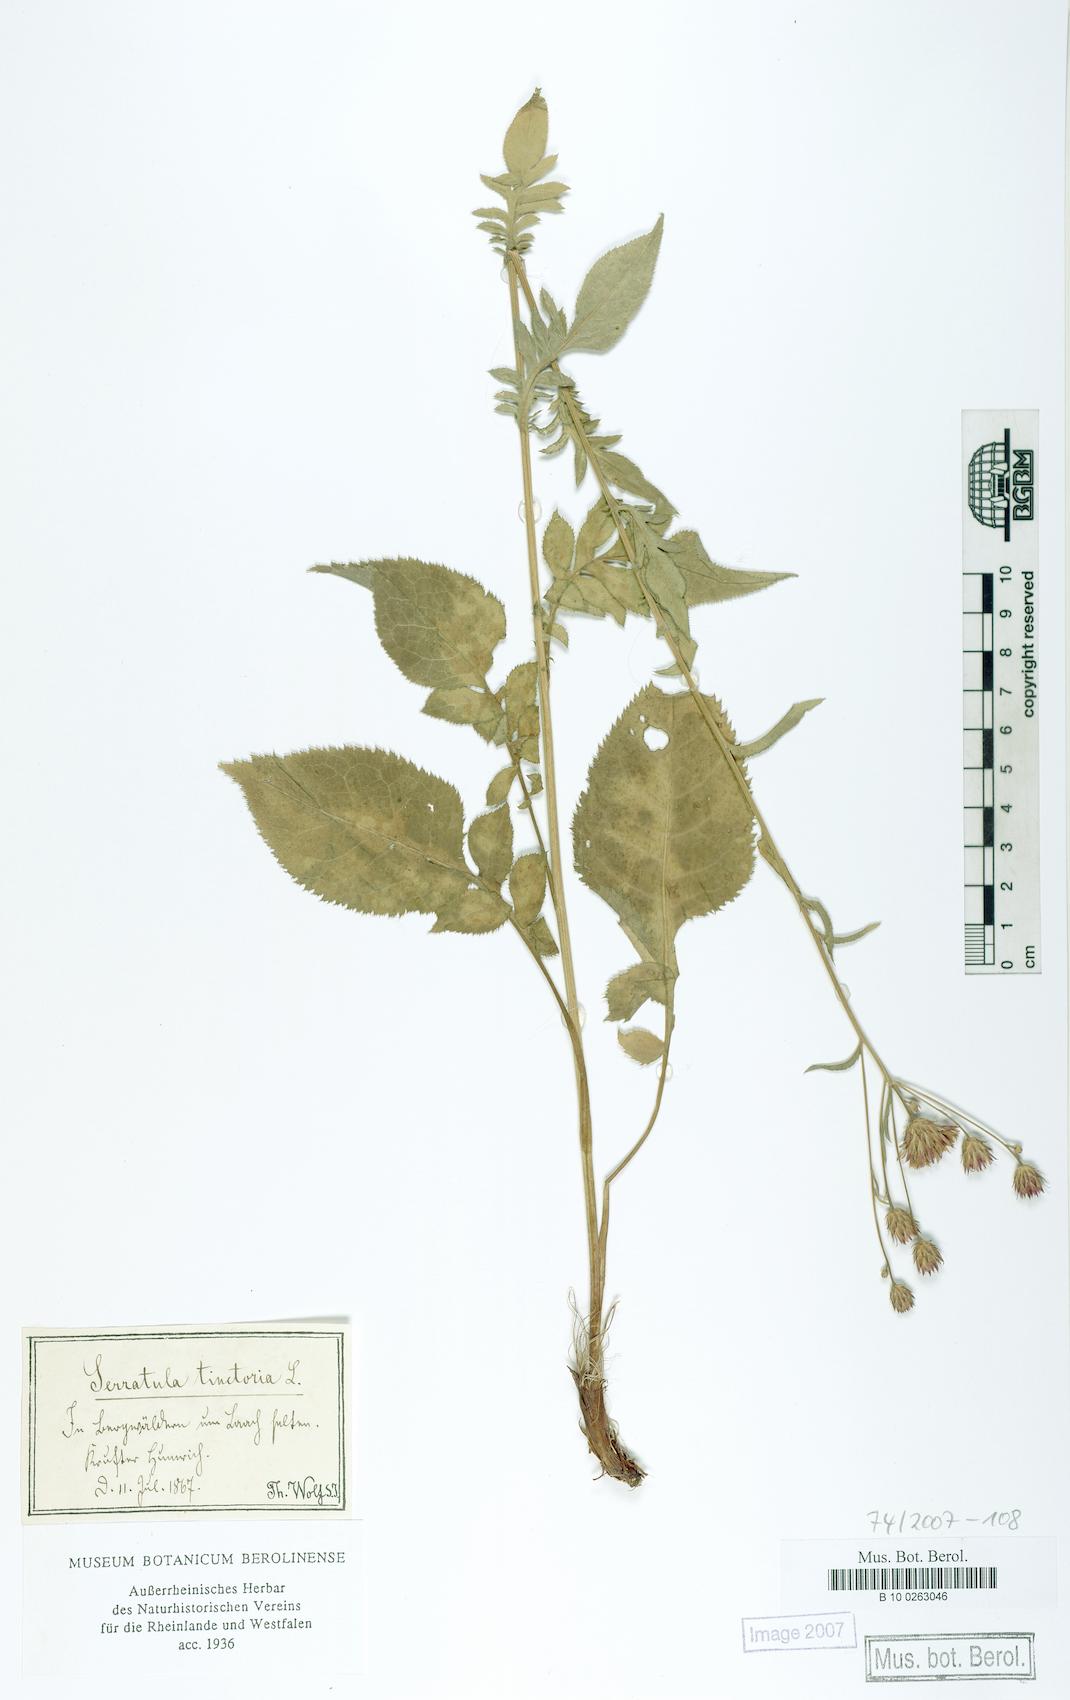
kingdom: Plantae
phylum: Tracheophyta
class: Magnoliopsida
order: Asterales
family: Asteraceae
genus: Serratula
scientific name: Serratula tinctoria
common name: Saw-wort
